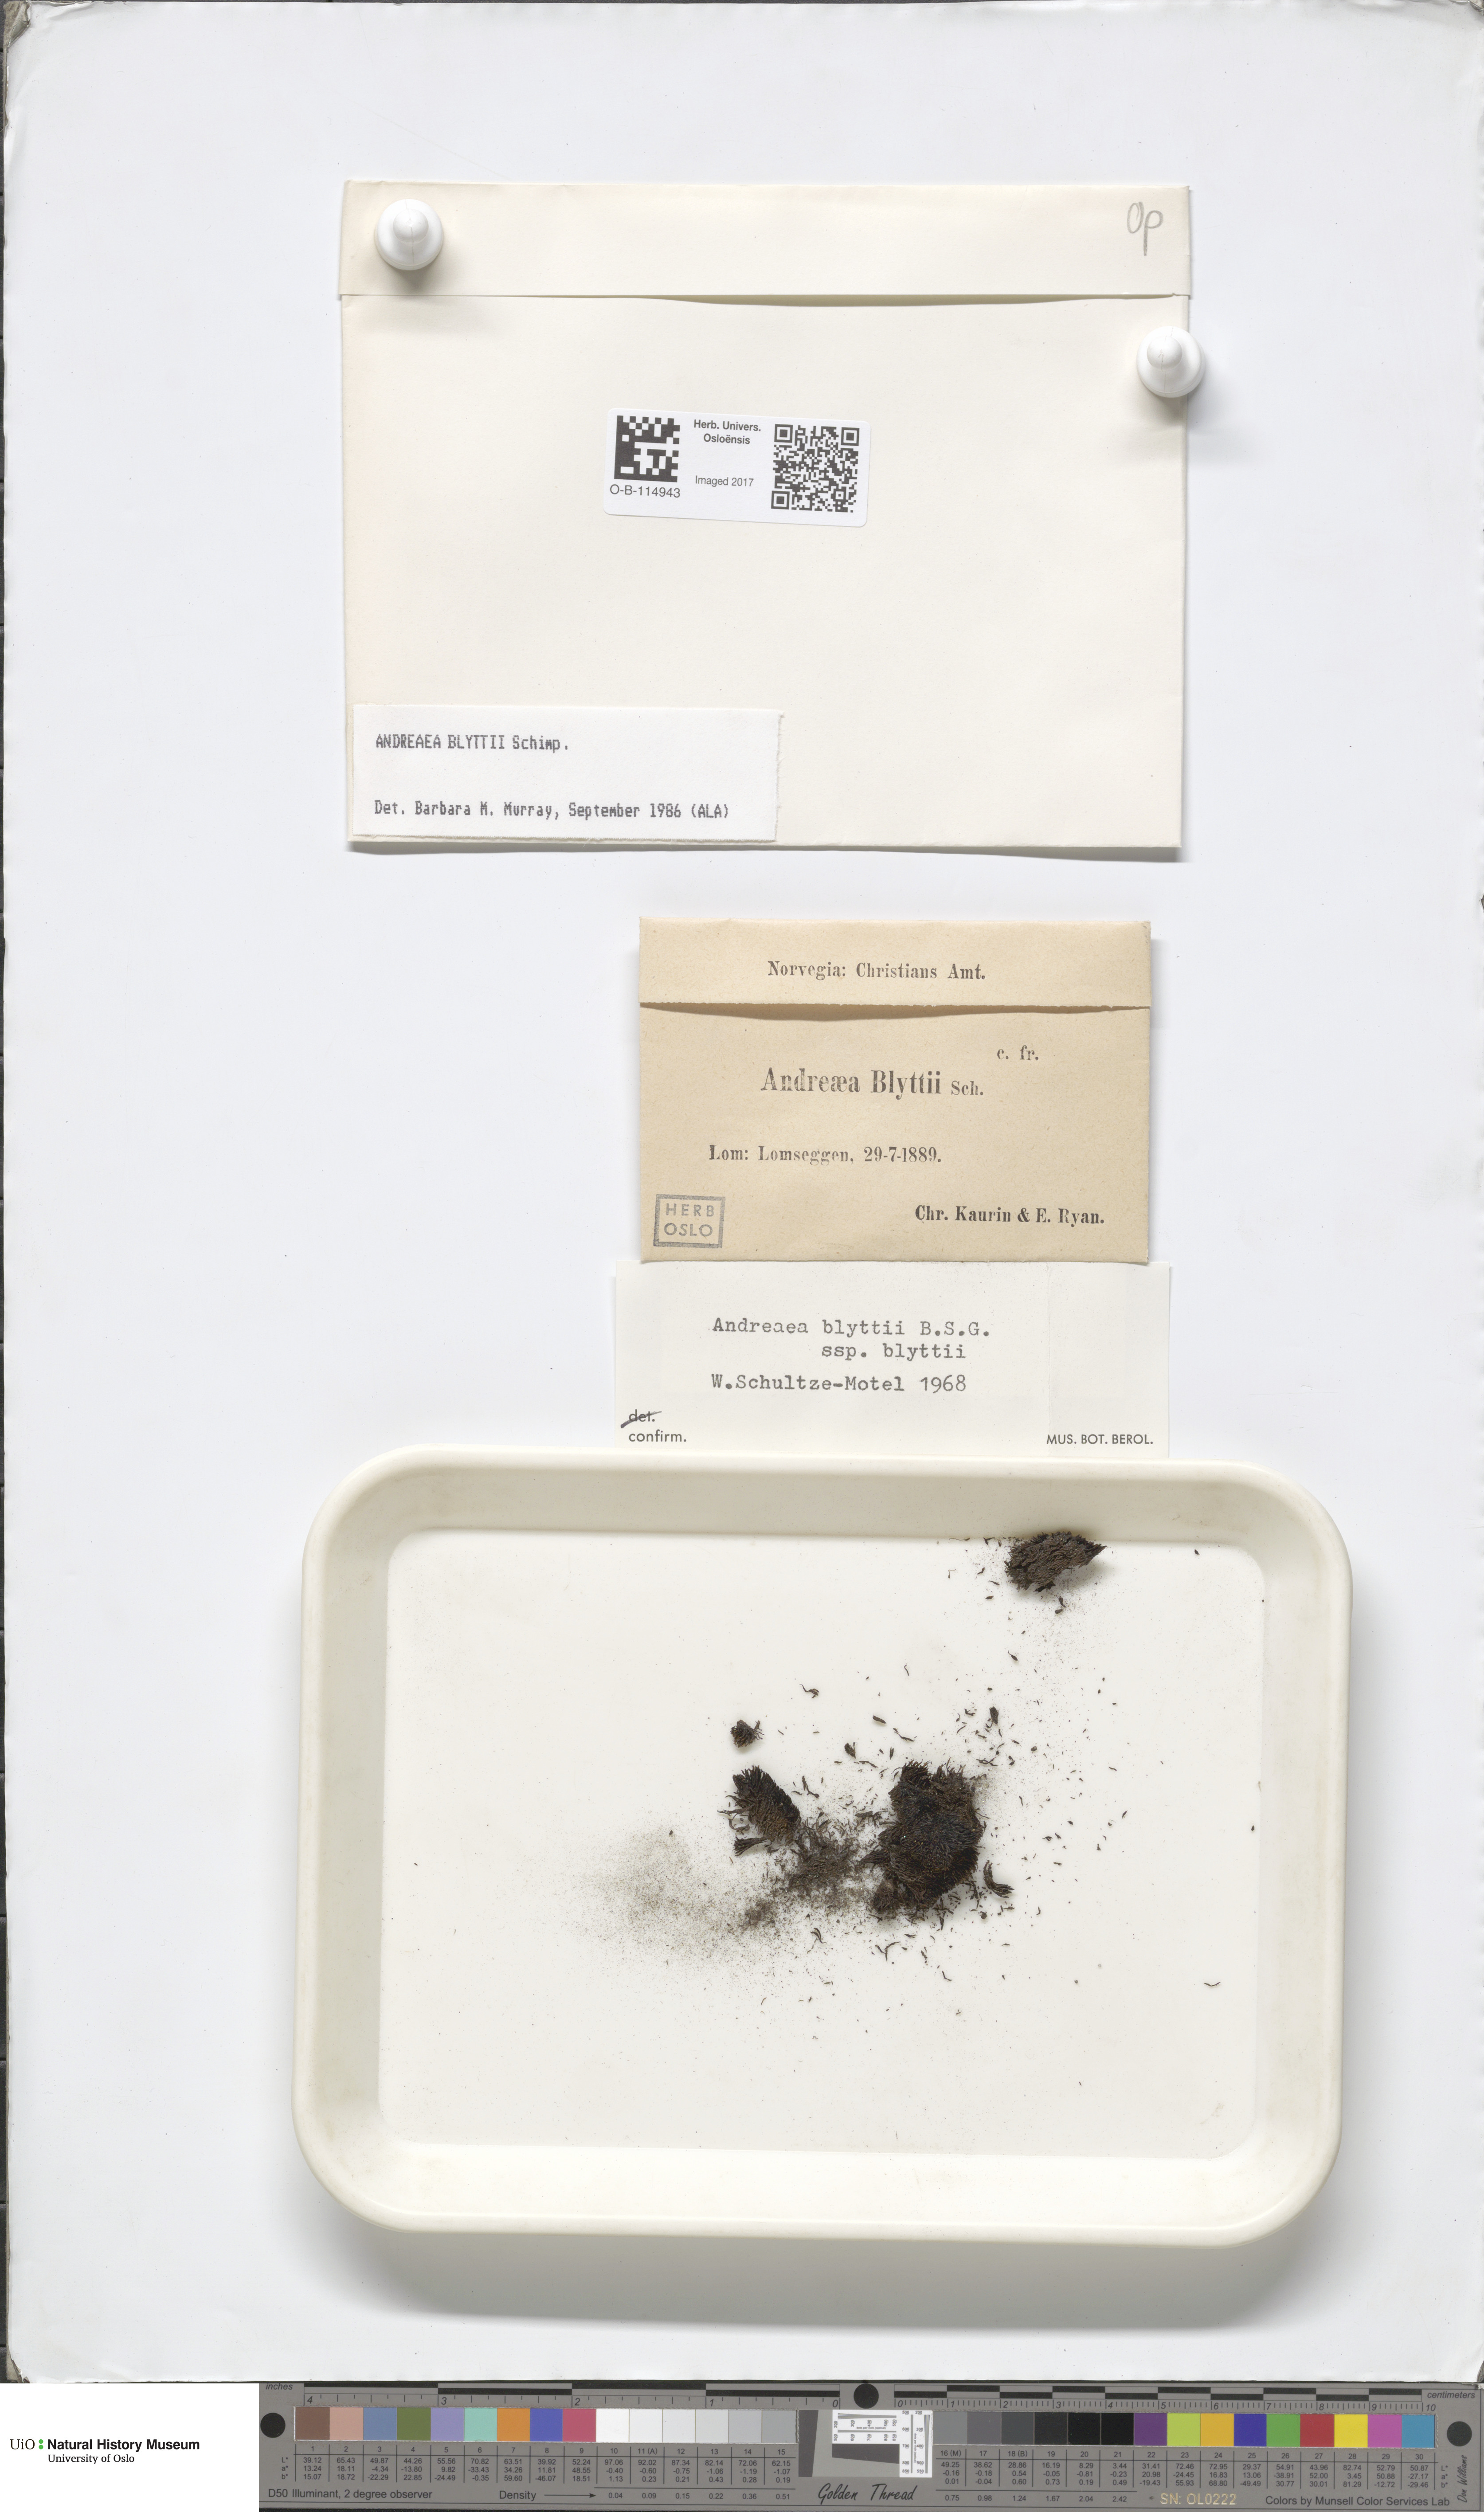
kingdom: Plantae
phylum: Bryophyta
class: Andreaeopsida
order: Andreaeales
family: Andreaeaceae
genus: Andreaea
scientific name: Andreaea hookeri
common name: Alpine rock-moss
